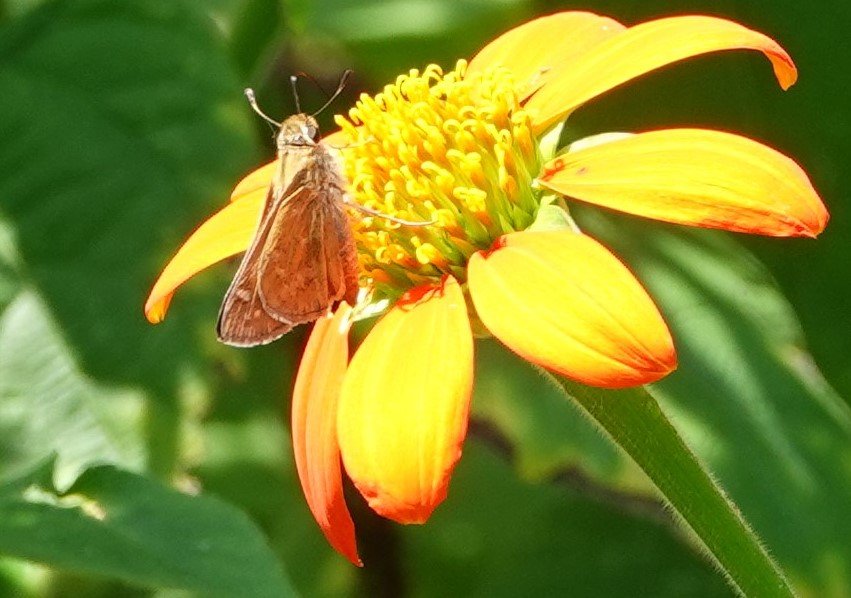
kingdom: Animalia
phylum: Arthropoda
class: Insecta
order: Lepidoptera
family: Hesperiidae
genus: Atalopedes
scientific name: Atalopedes campestris
